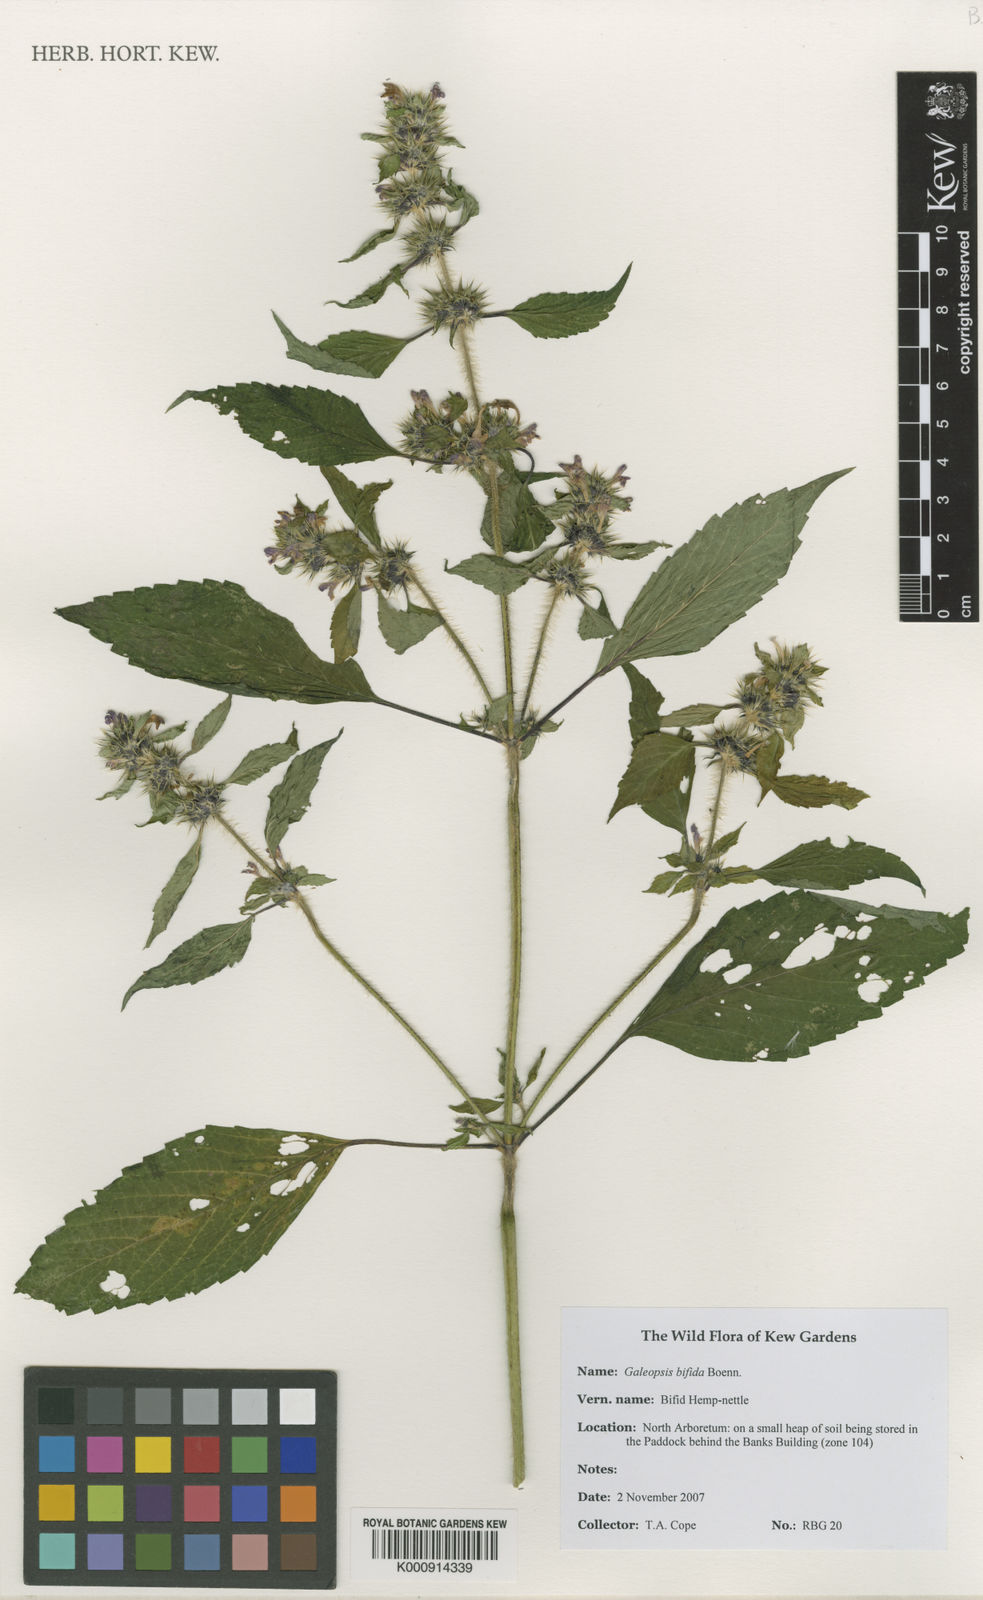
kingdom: Plantae
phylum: Tracheophyta
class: Magnoliopsida
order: Lamiales
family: Lamiaceae
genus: Galeopsis
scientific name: Galeopsis bifida
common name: Bifid hemp-nettle
